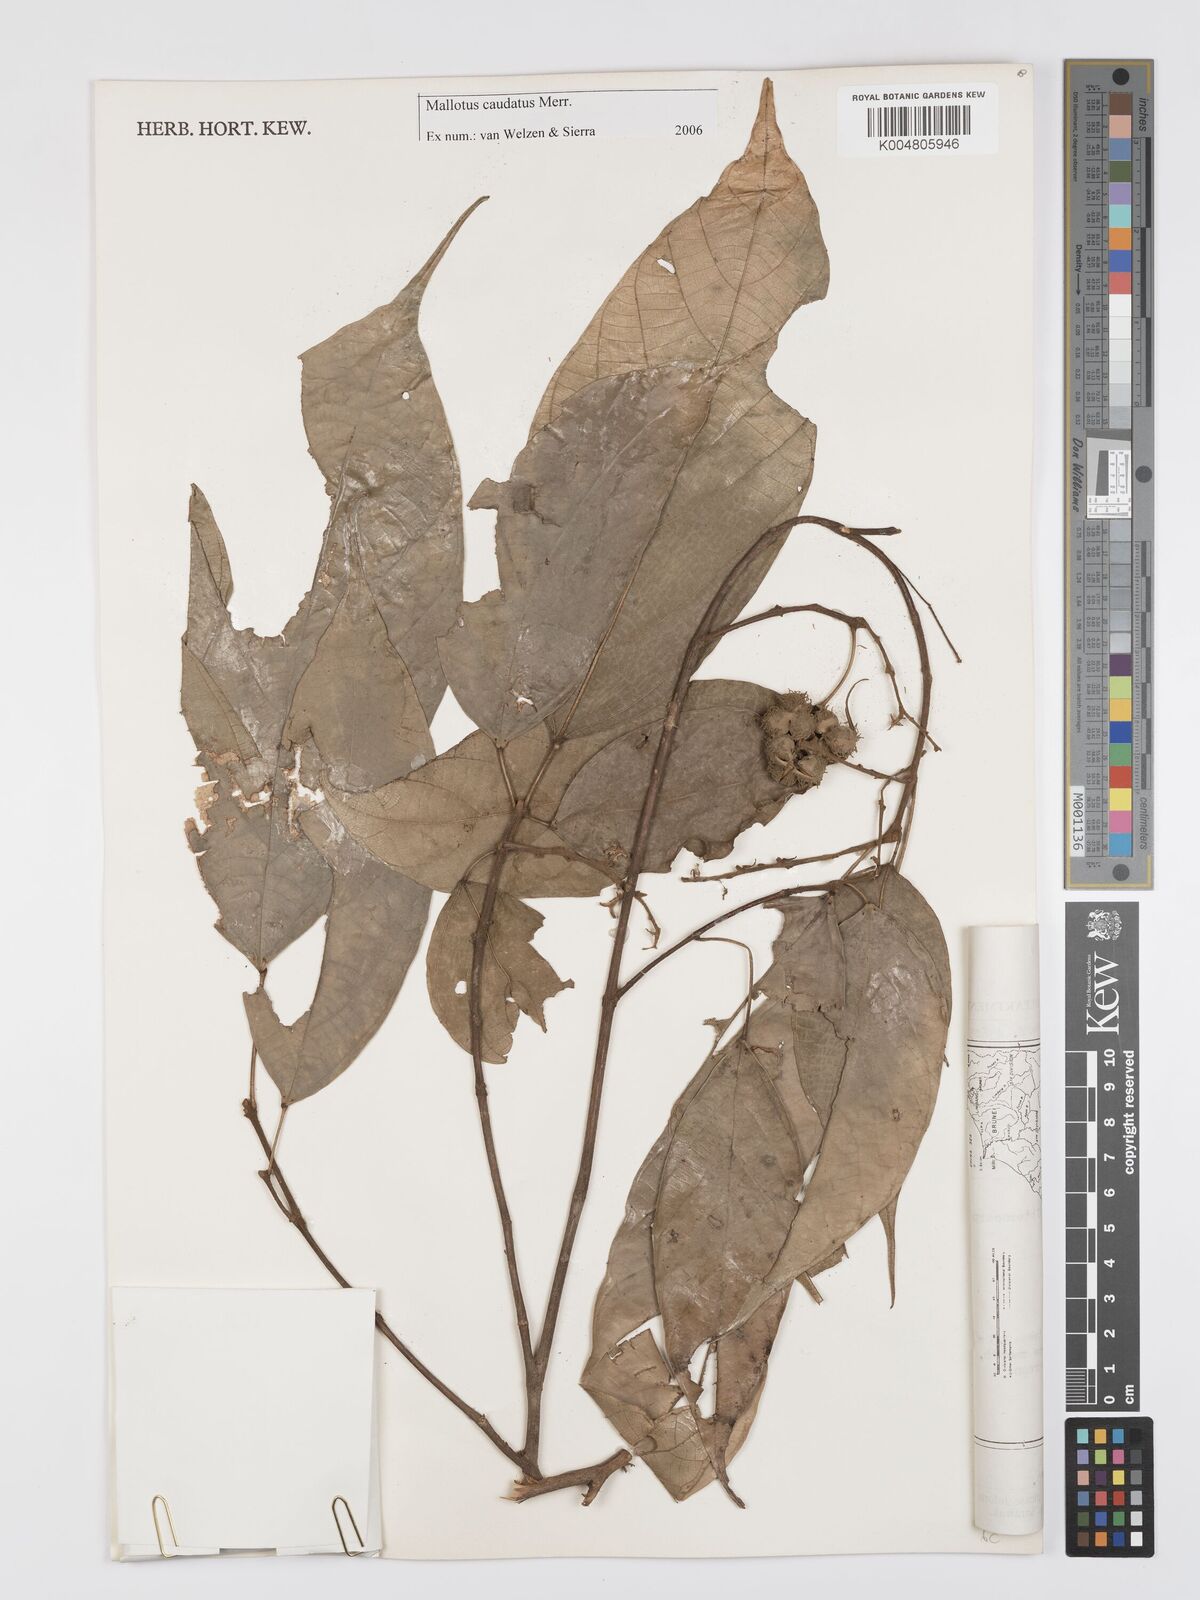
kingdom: Plantae
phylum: Tracheophyta
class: Magnoliopsida
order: Malpighiales
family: Euphorbiaceae
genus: Mallotus
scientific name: Mallotus caudatus
